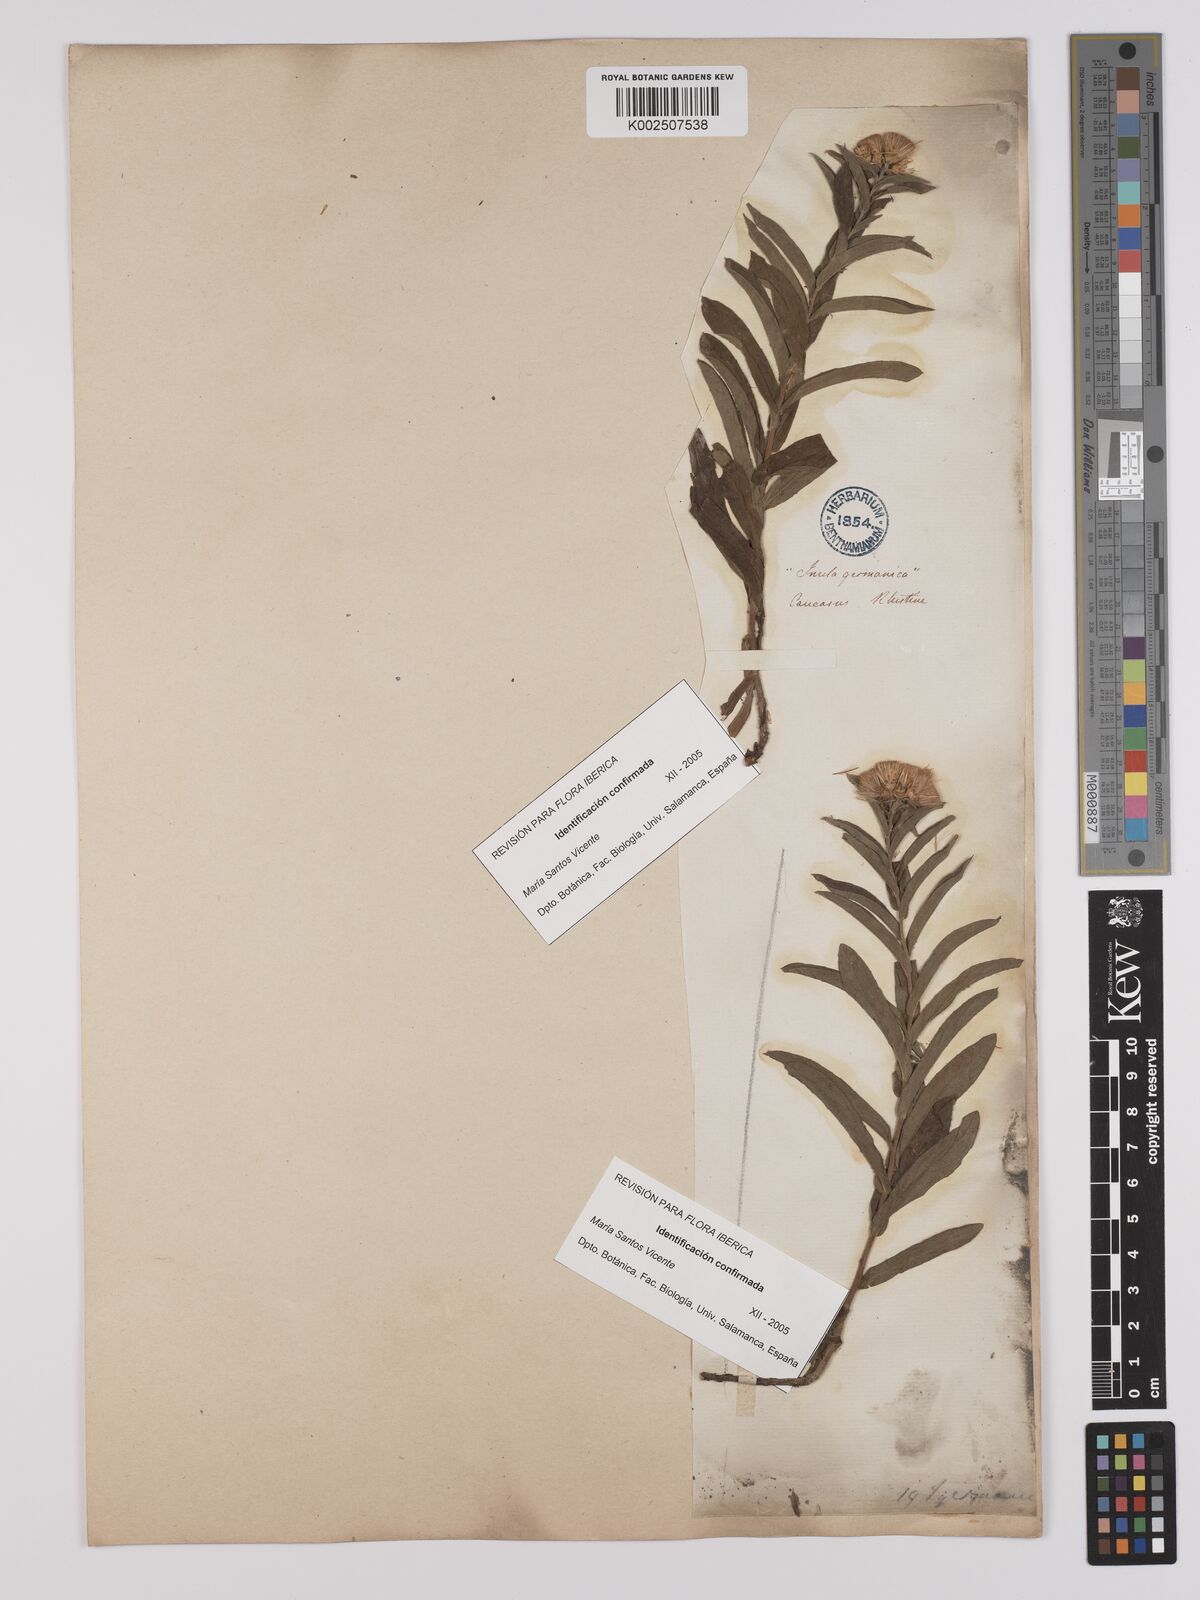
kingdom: Plantae
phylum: Tracheophyta
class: Magnoliopsida
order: Asterales
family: Asteraceae
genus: Pentanema
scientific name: Pentanema germanicum
